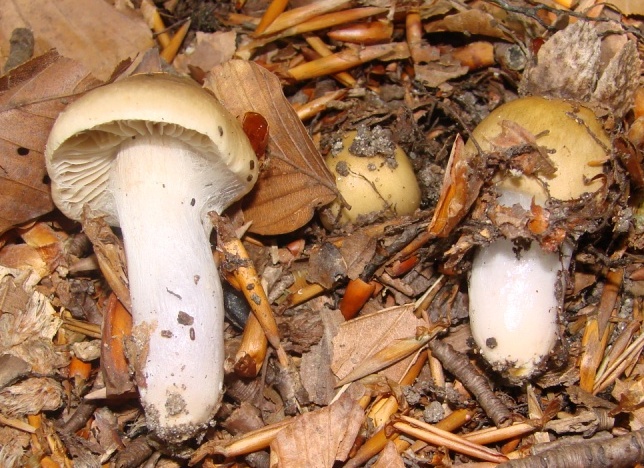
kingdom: Fungi
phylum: Basidiomycota
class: Agaricomycetes
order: Agaricales
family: Cortinariaceae
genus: Cortinarius
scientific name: Cortinarius elatior
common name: høj slørhat
